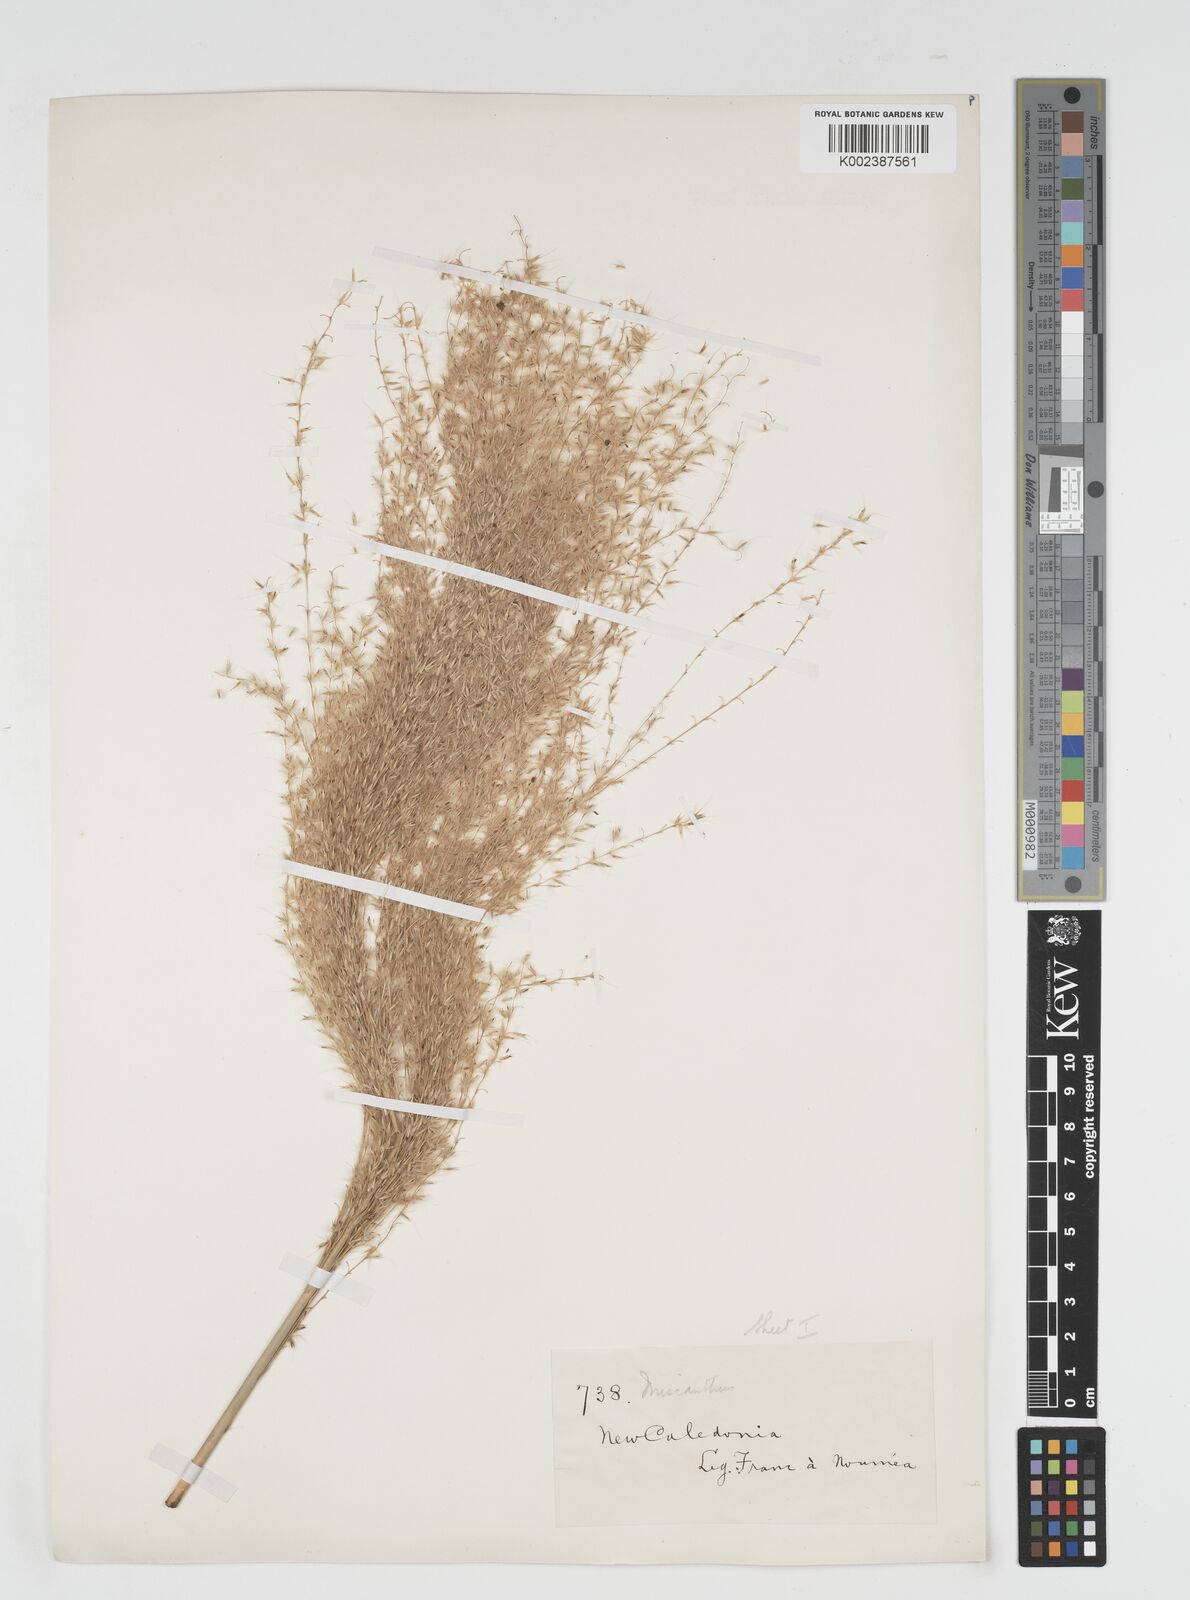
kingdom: Plantae
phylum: Tracheophyta
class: Liliopsida
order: Poales
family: Poaceae
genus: Miscanthus
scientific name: Miscanthus floridulus
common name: Pacific island silvergrass
